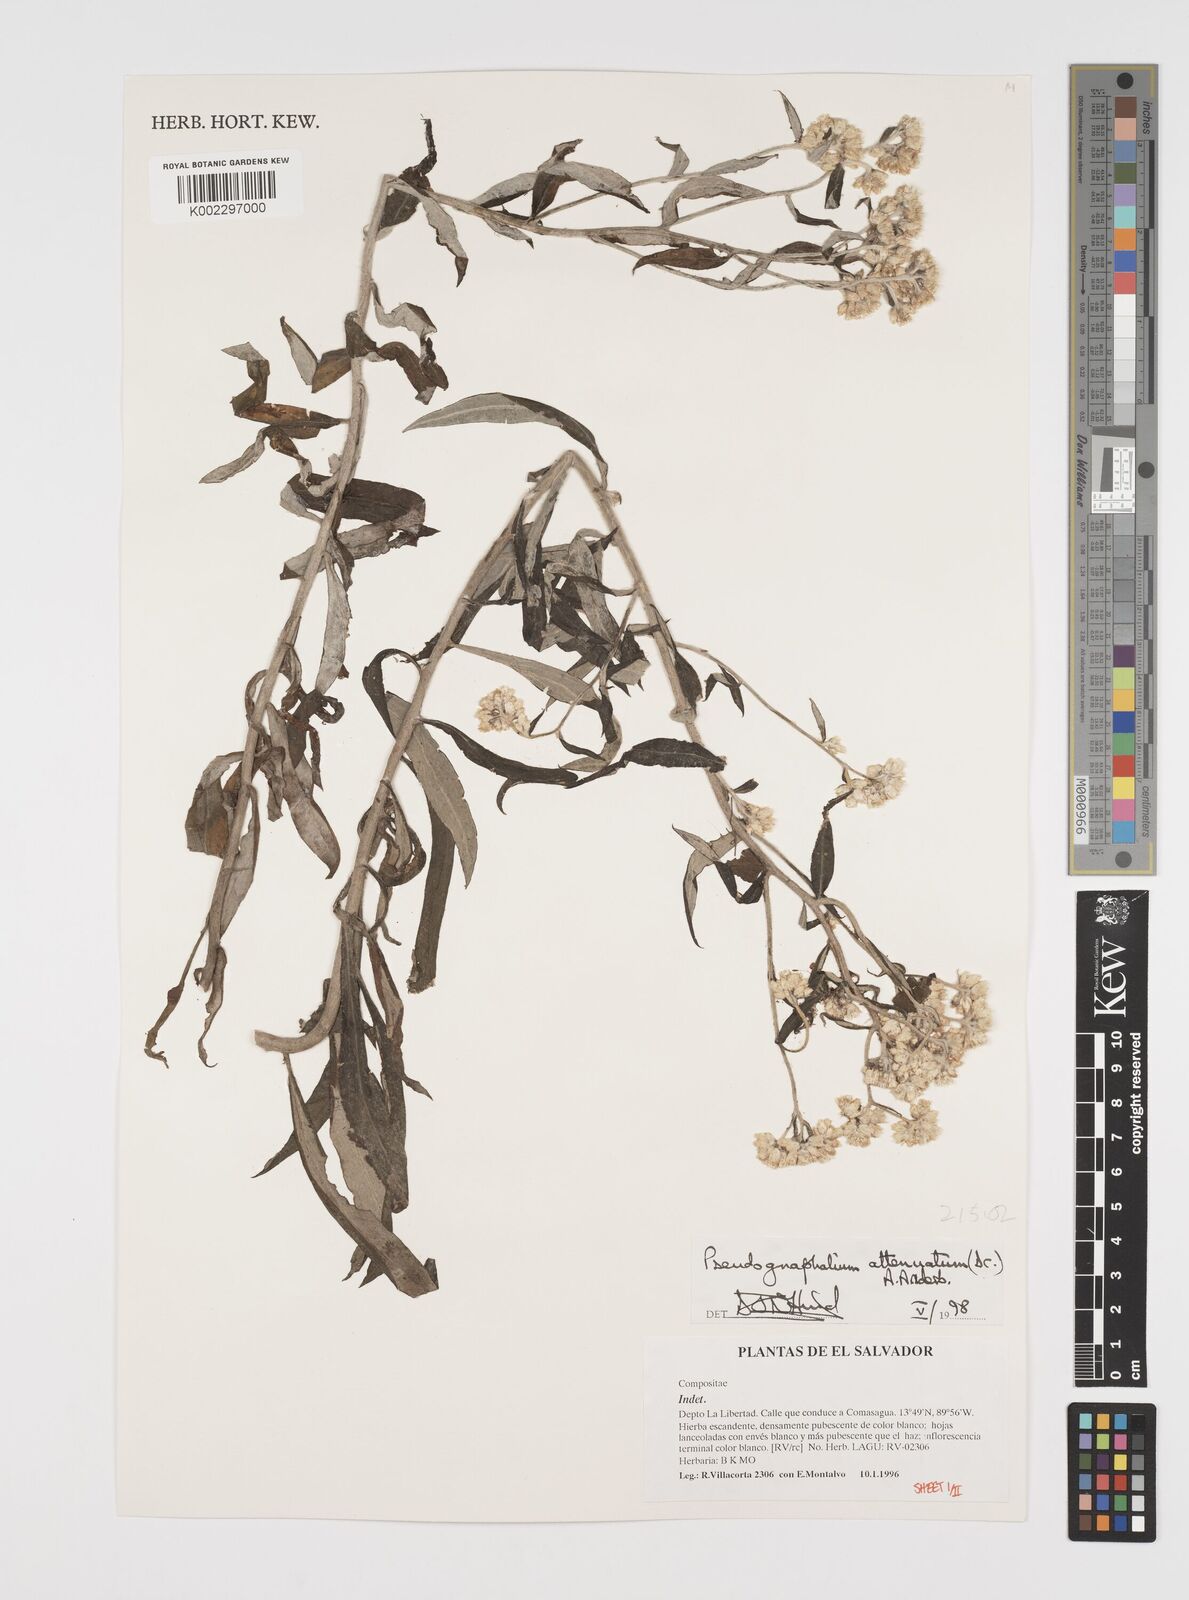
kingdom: Plantae
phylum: Tracheophyta
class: Magnoliopsida
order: Asterales
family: Asteraceae
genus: Pseudognaphalium
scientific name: Pseudognaphalium attenuatum
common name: Tapered cudweed
